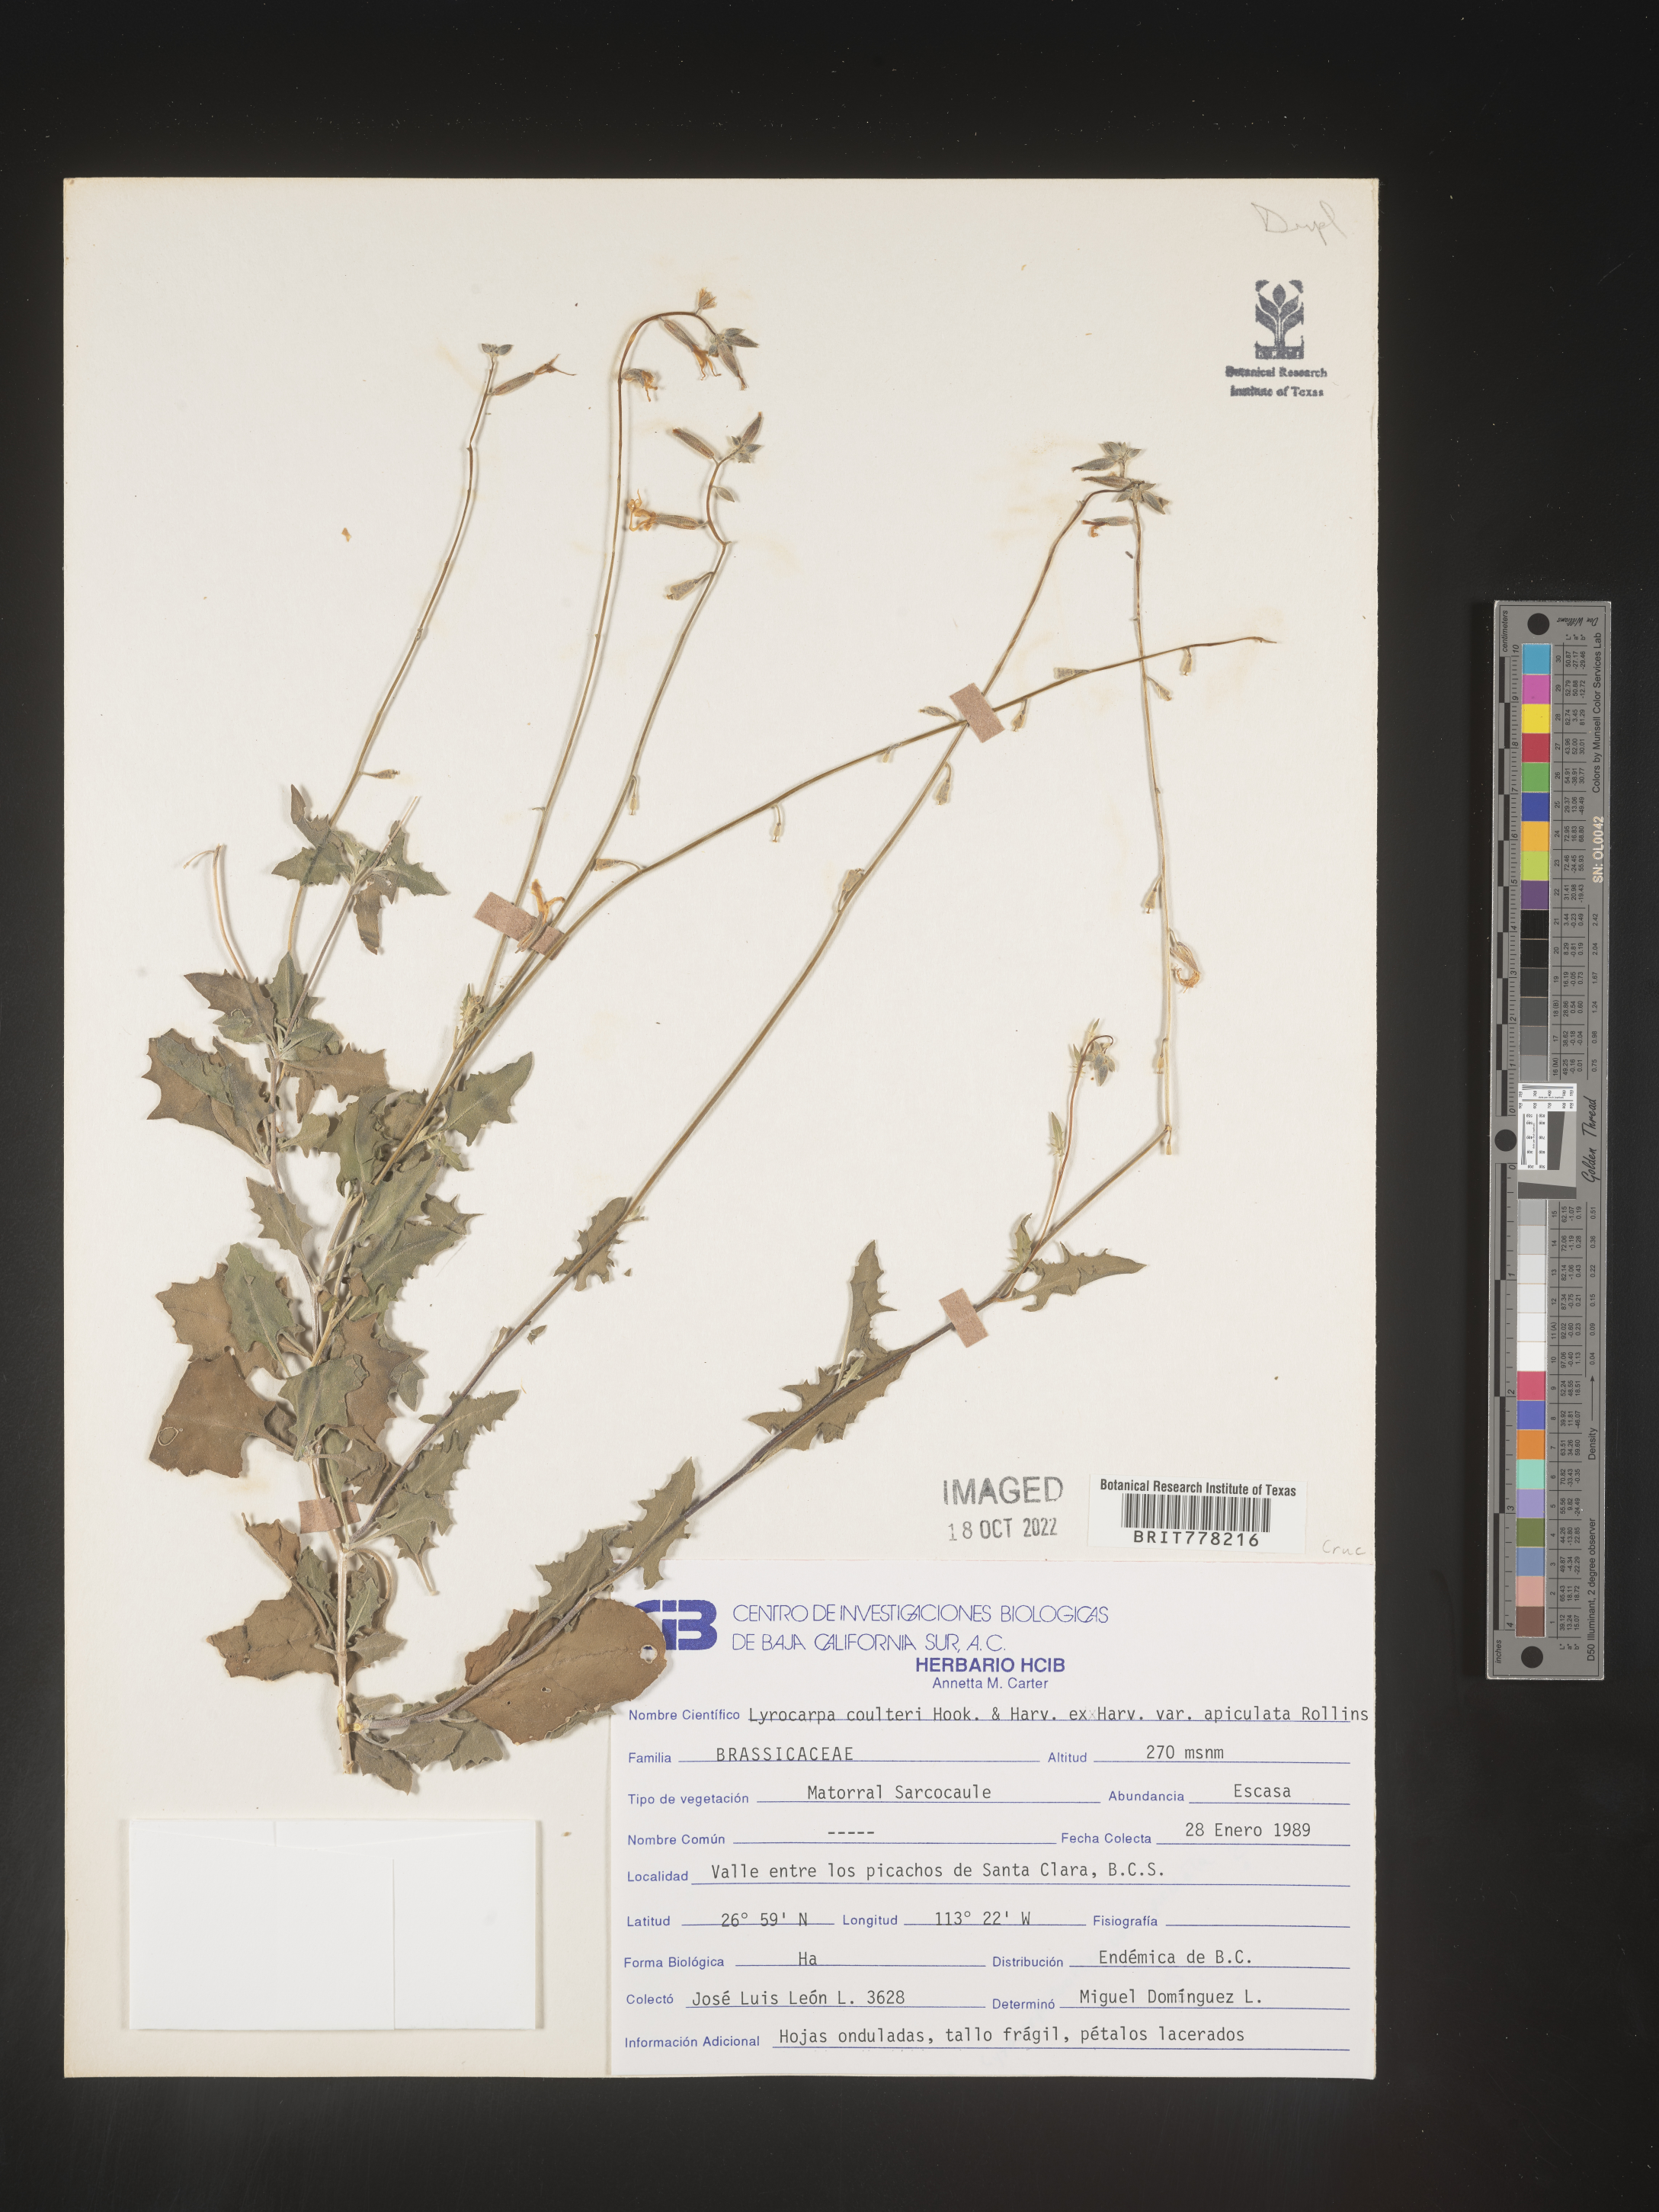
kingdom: Plantae
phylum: Tracheophyta
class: Magnoliopsida
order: Brassicales
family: Brassicaceae
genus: Lyrocarpa
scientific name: Lyrocarpa
